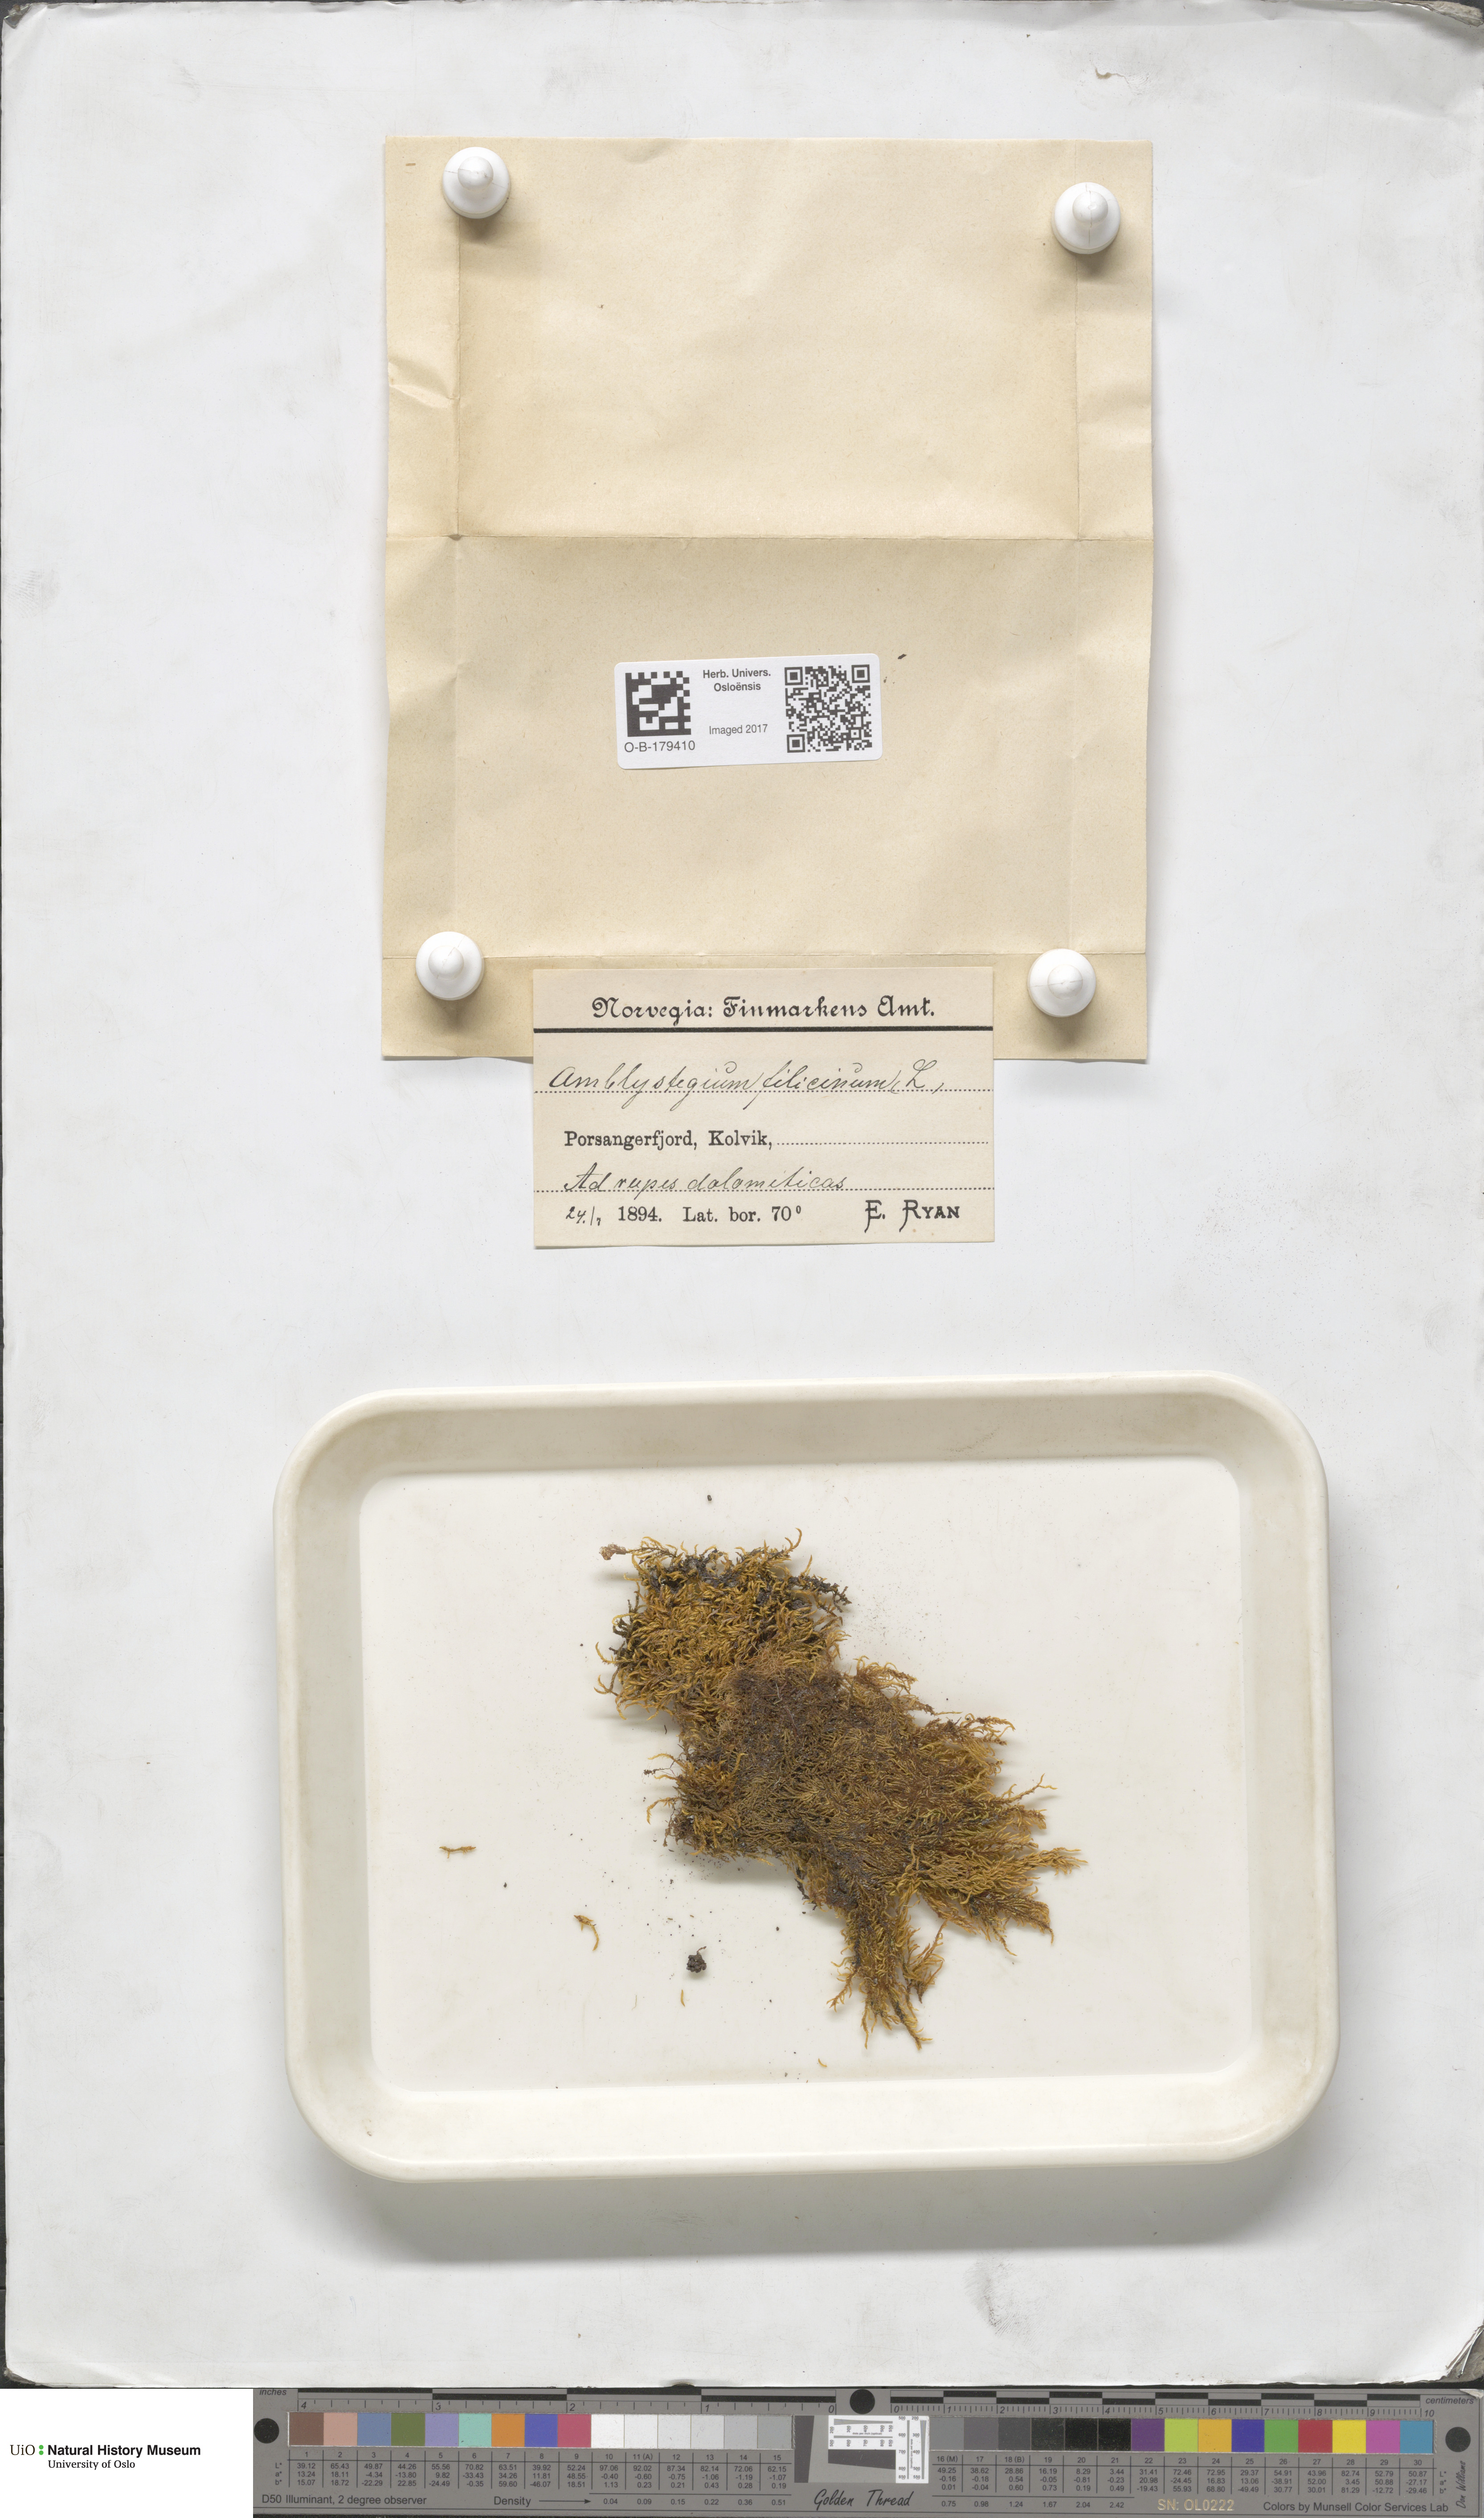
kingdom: Plantae
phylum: Bryophyta
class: Bryopsida
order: Hypnales
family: Amblystegiaceae
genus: Cratoneuron
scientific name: Cratoneuron filicinum
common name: Fern-leaved hook moss
